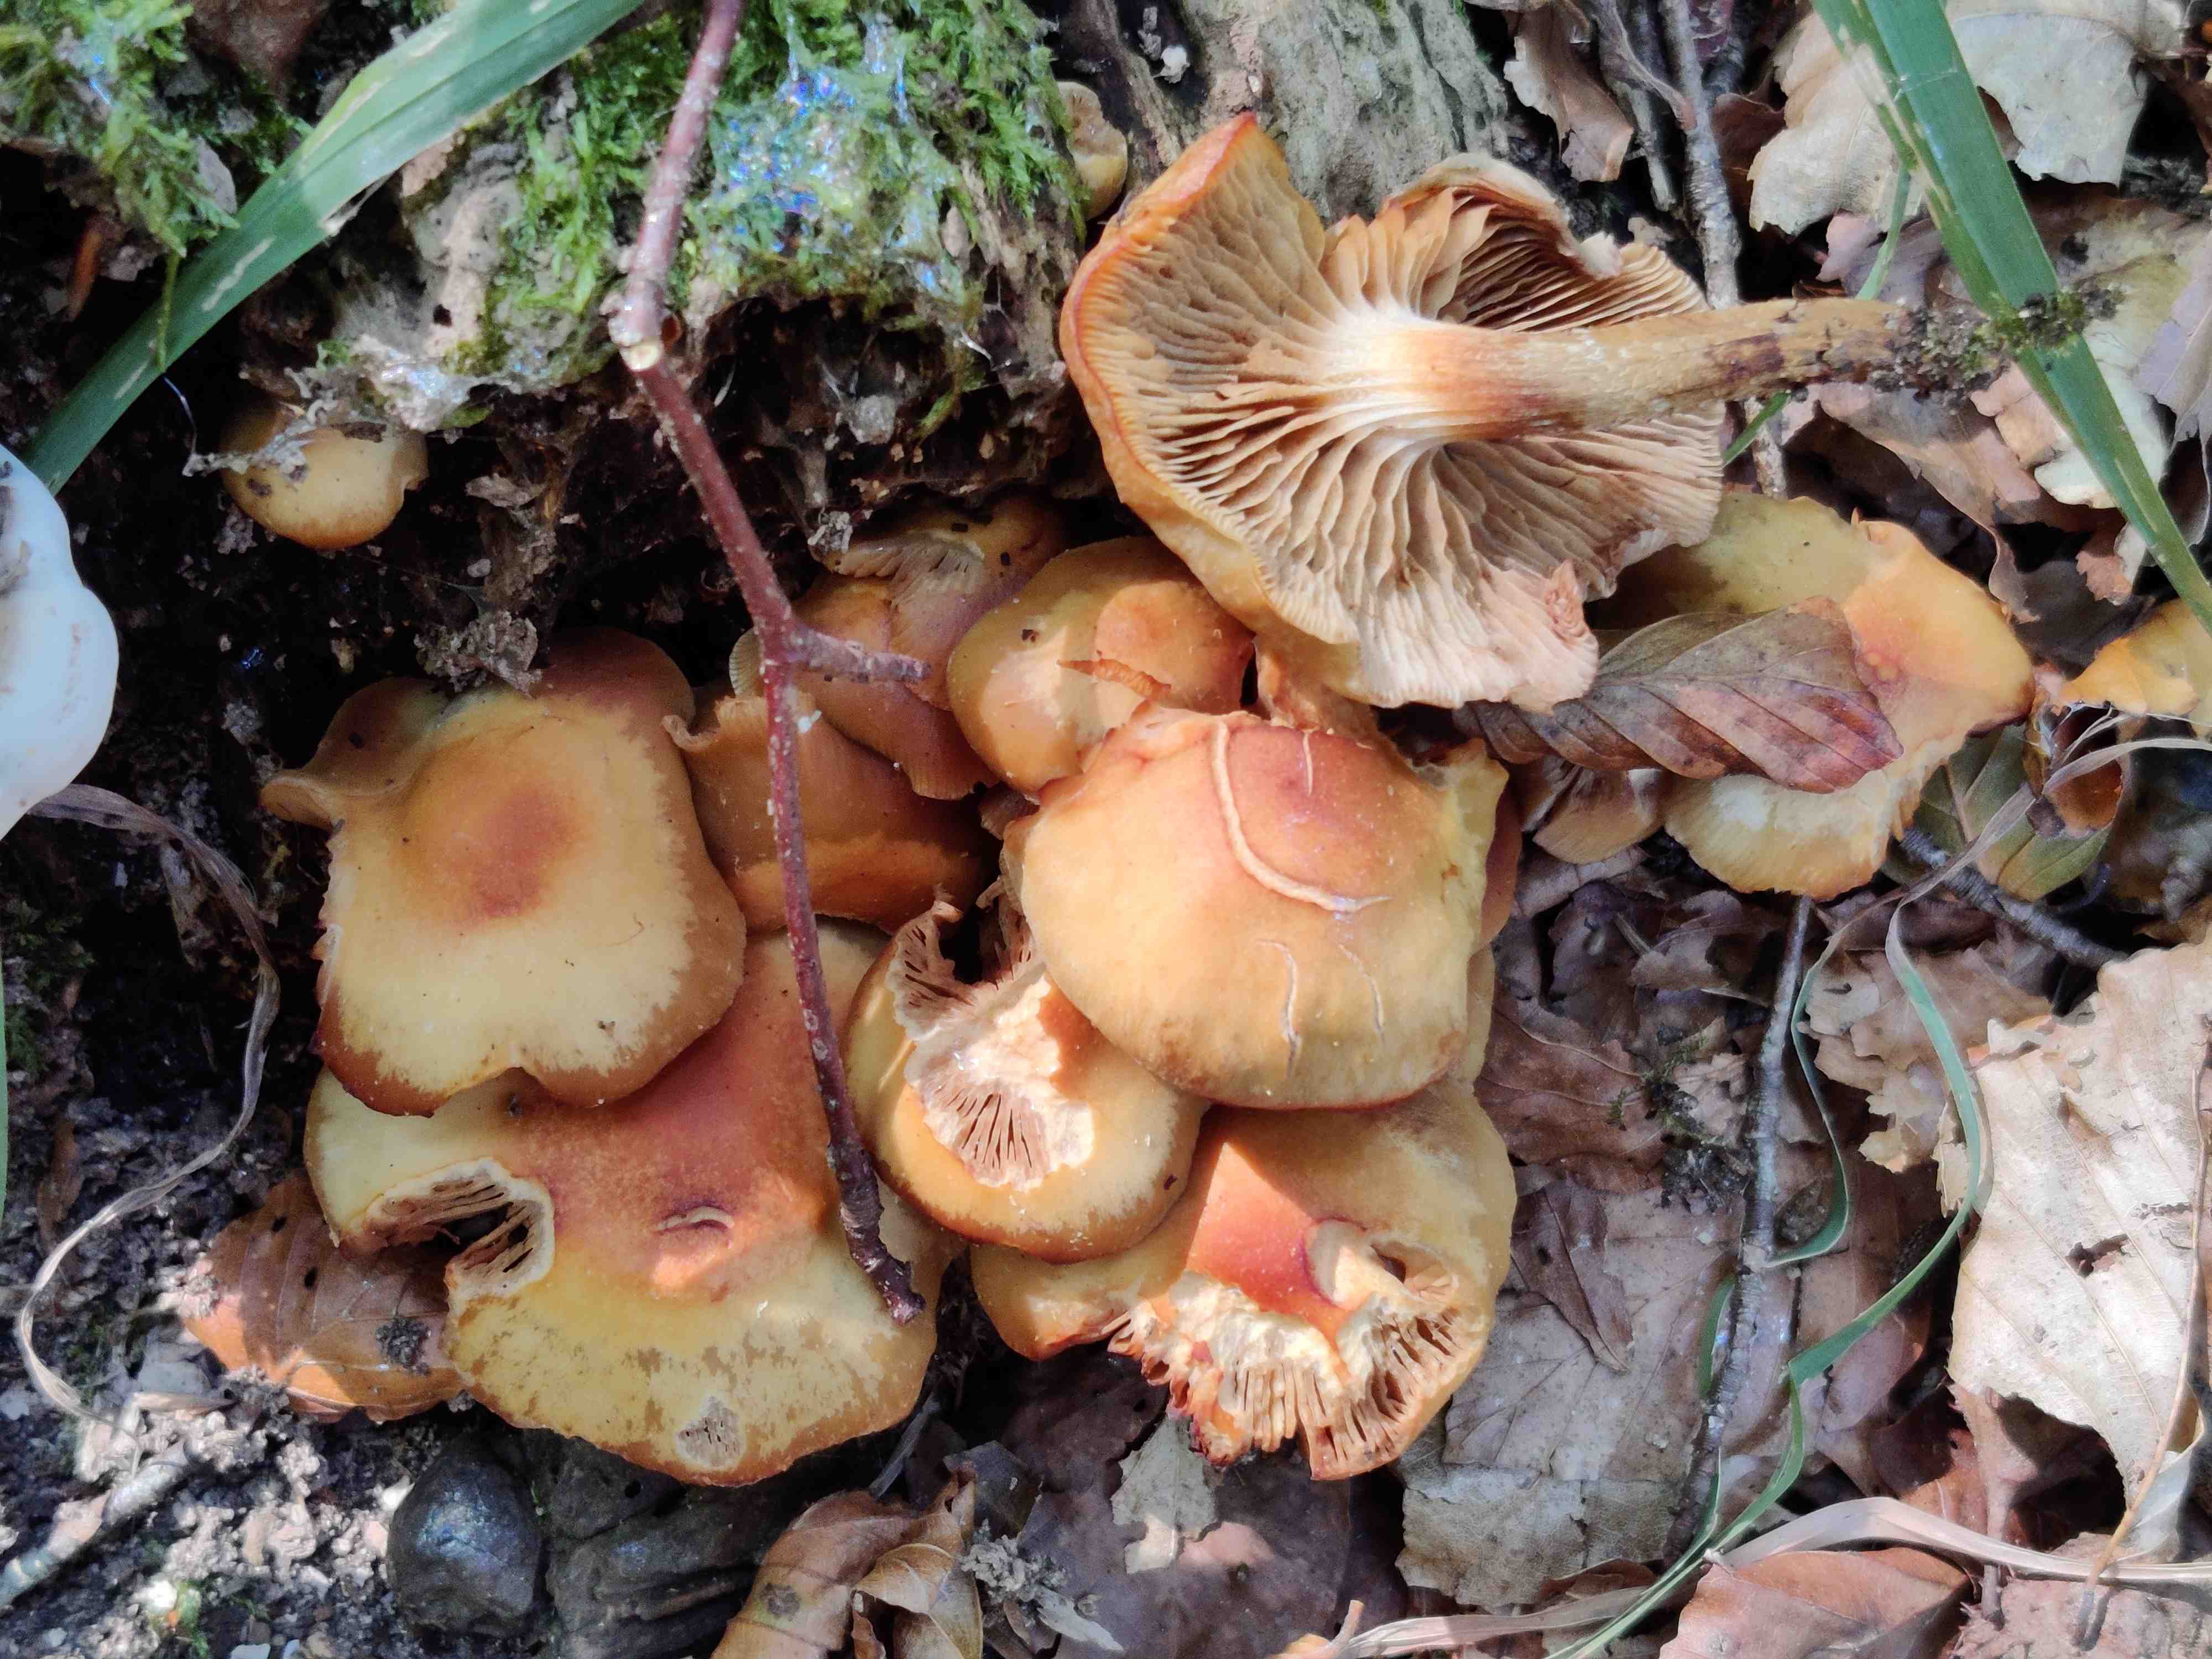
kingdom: Fungi
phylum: Basidiomycota
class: Agaricomycetes
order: Agaricales
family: Strophariaceae
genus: Kuehneromyces
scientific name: Kuehneromyces mutabilis
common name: foranderlig skælhat
